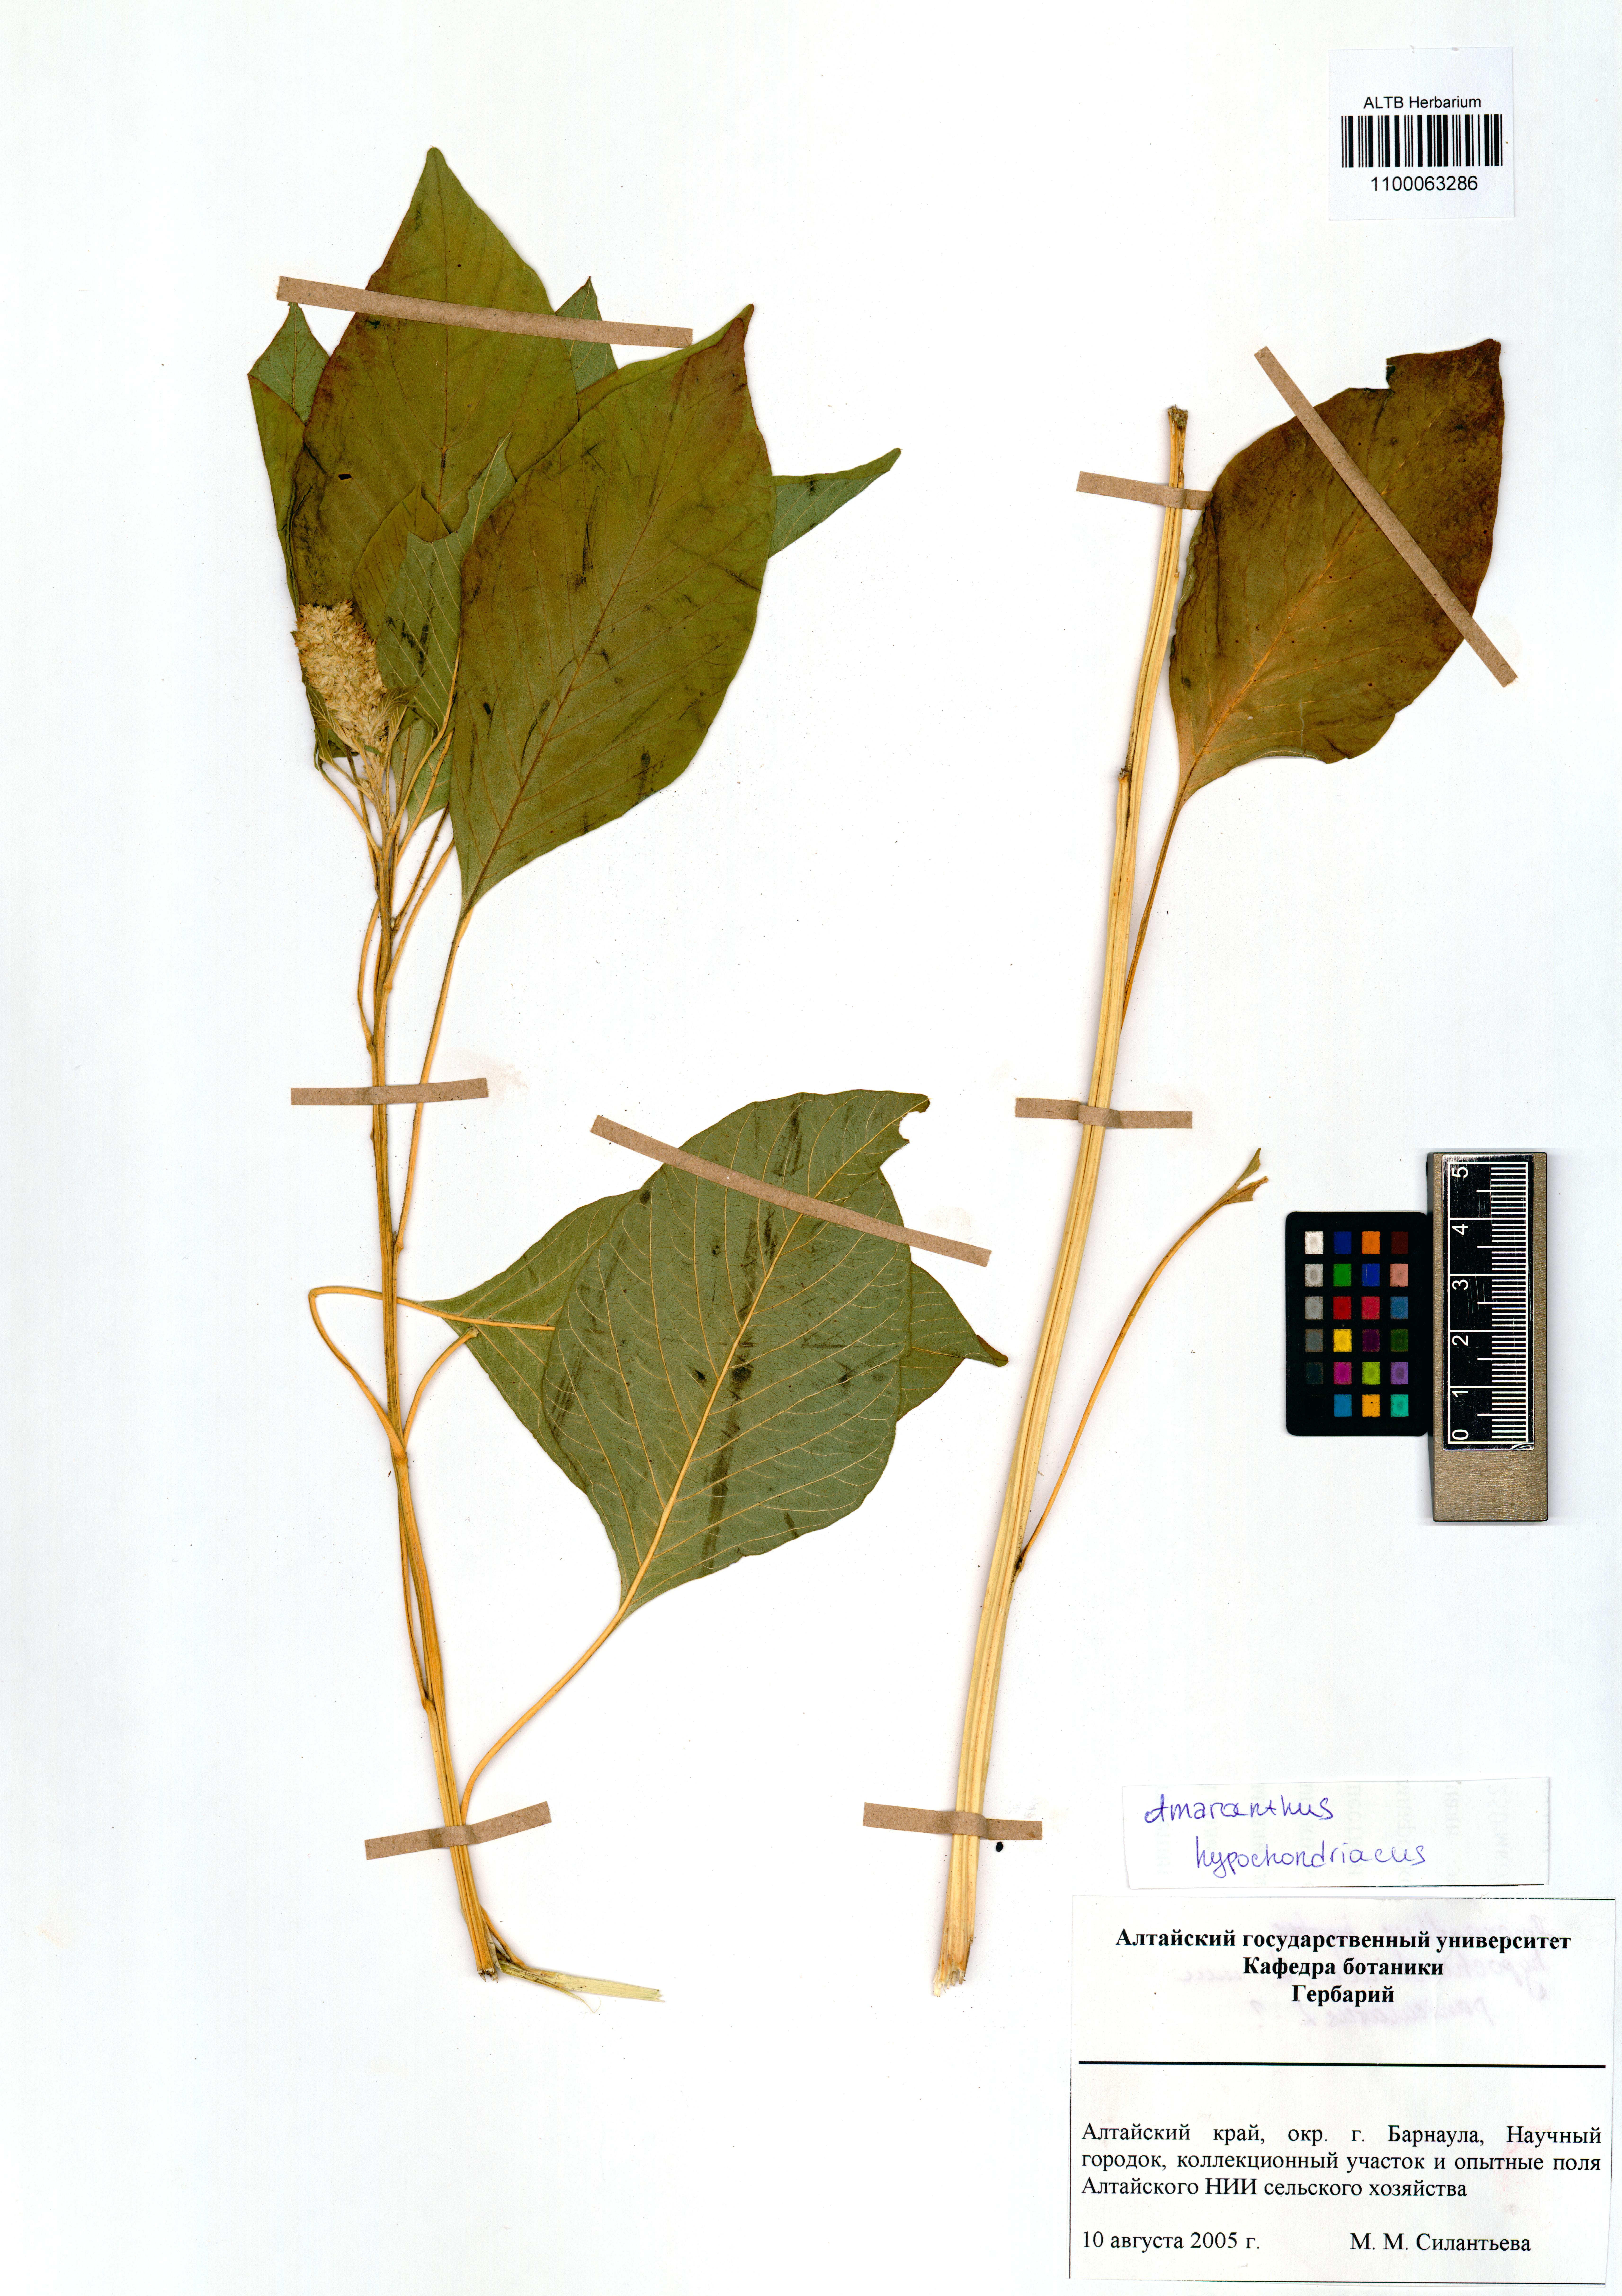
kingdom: Plantae
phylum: Tracheophyta
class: Magnoliopsida
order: Caryophyllales
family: Amaranthaceae
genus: Amaranthus
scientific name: Amaranthus hypochondriacus
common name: Prince's-feather
